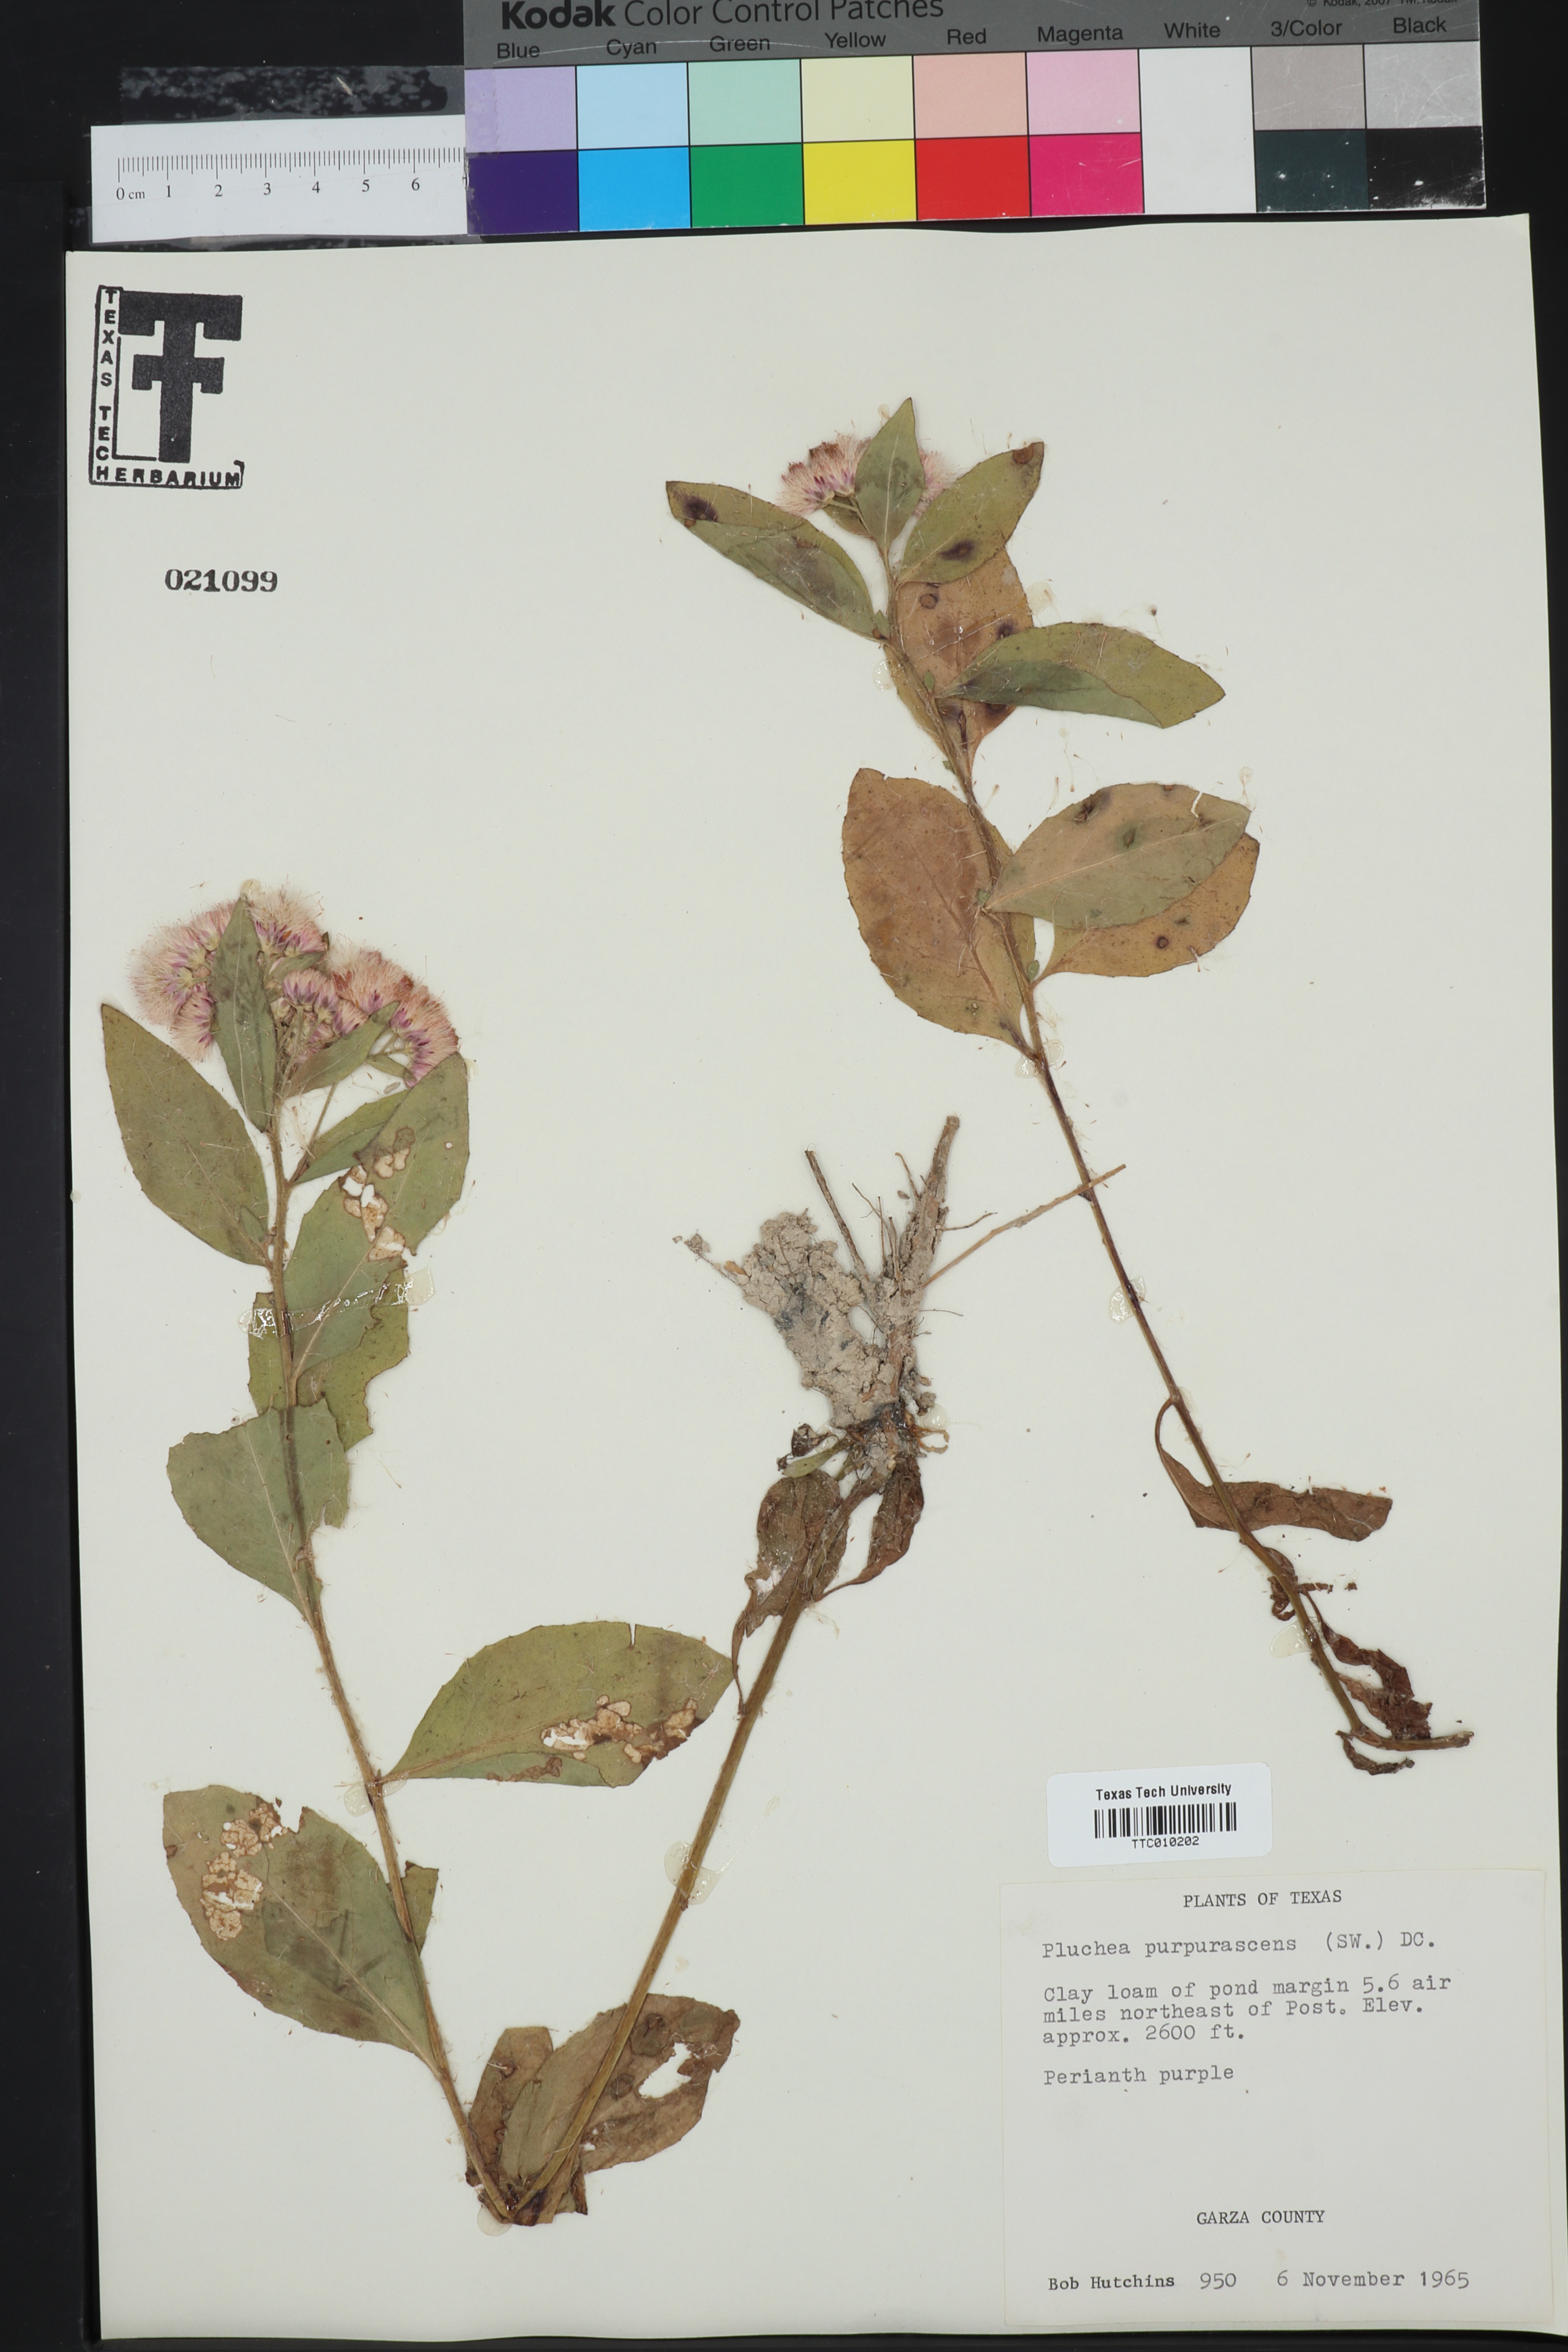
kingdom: Plantae
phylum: Tracheophyta
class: Magnoliopsida
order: Asterales
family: Asteraceae
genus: Pluchea
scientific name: Pluchea odorata
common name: Saltmarsh fleabane
